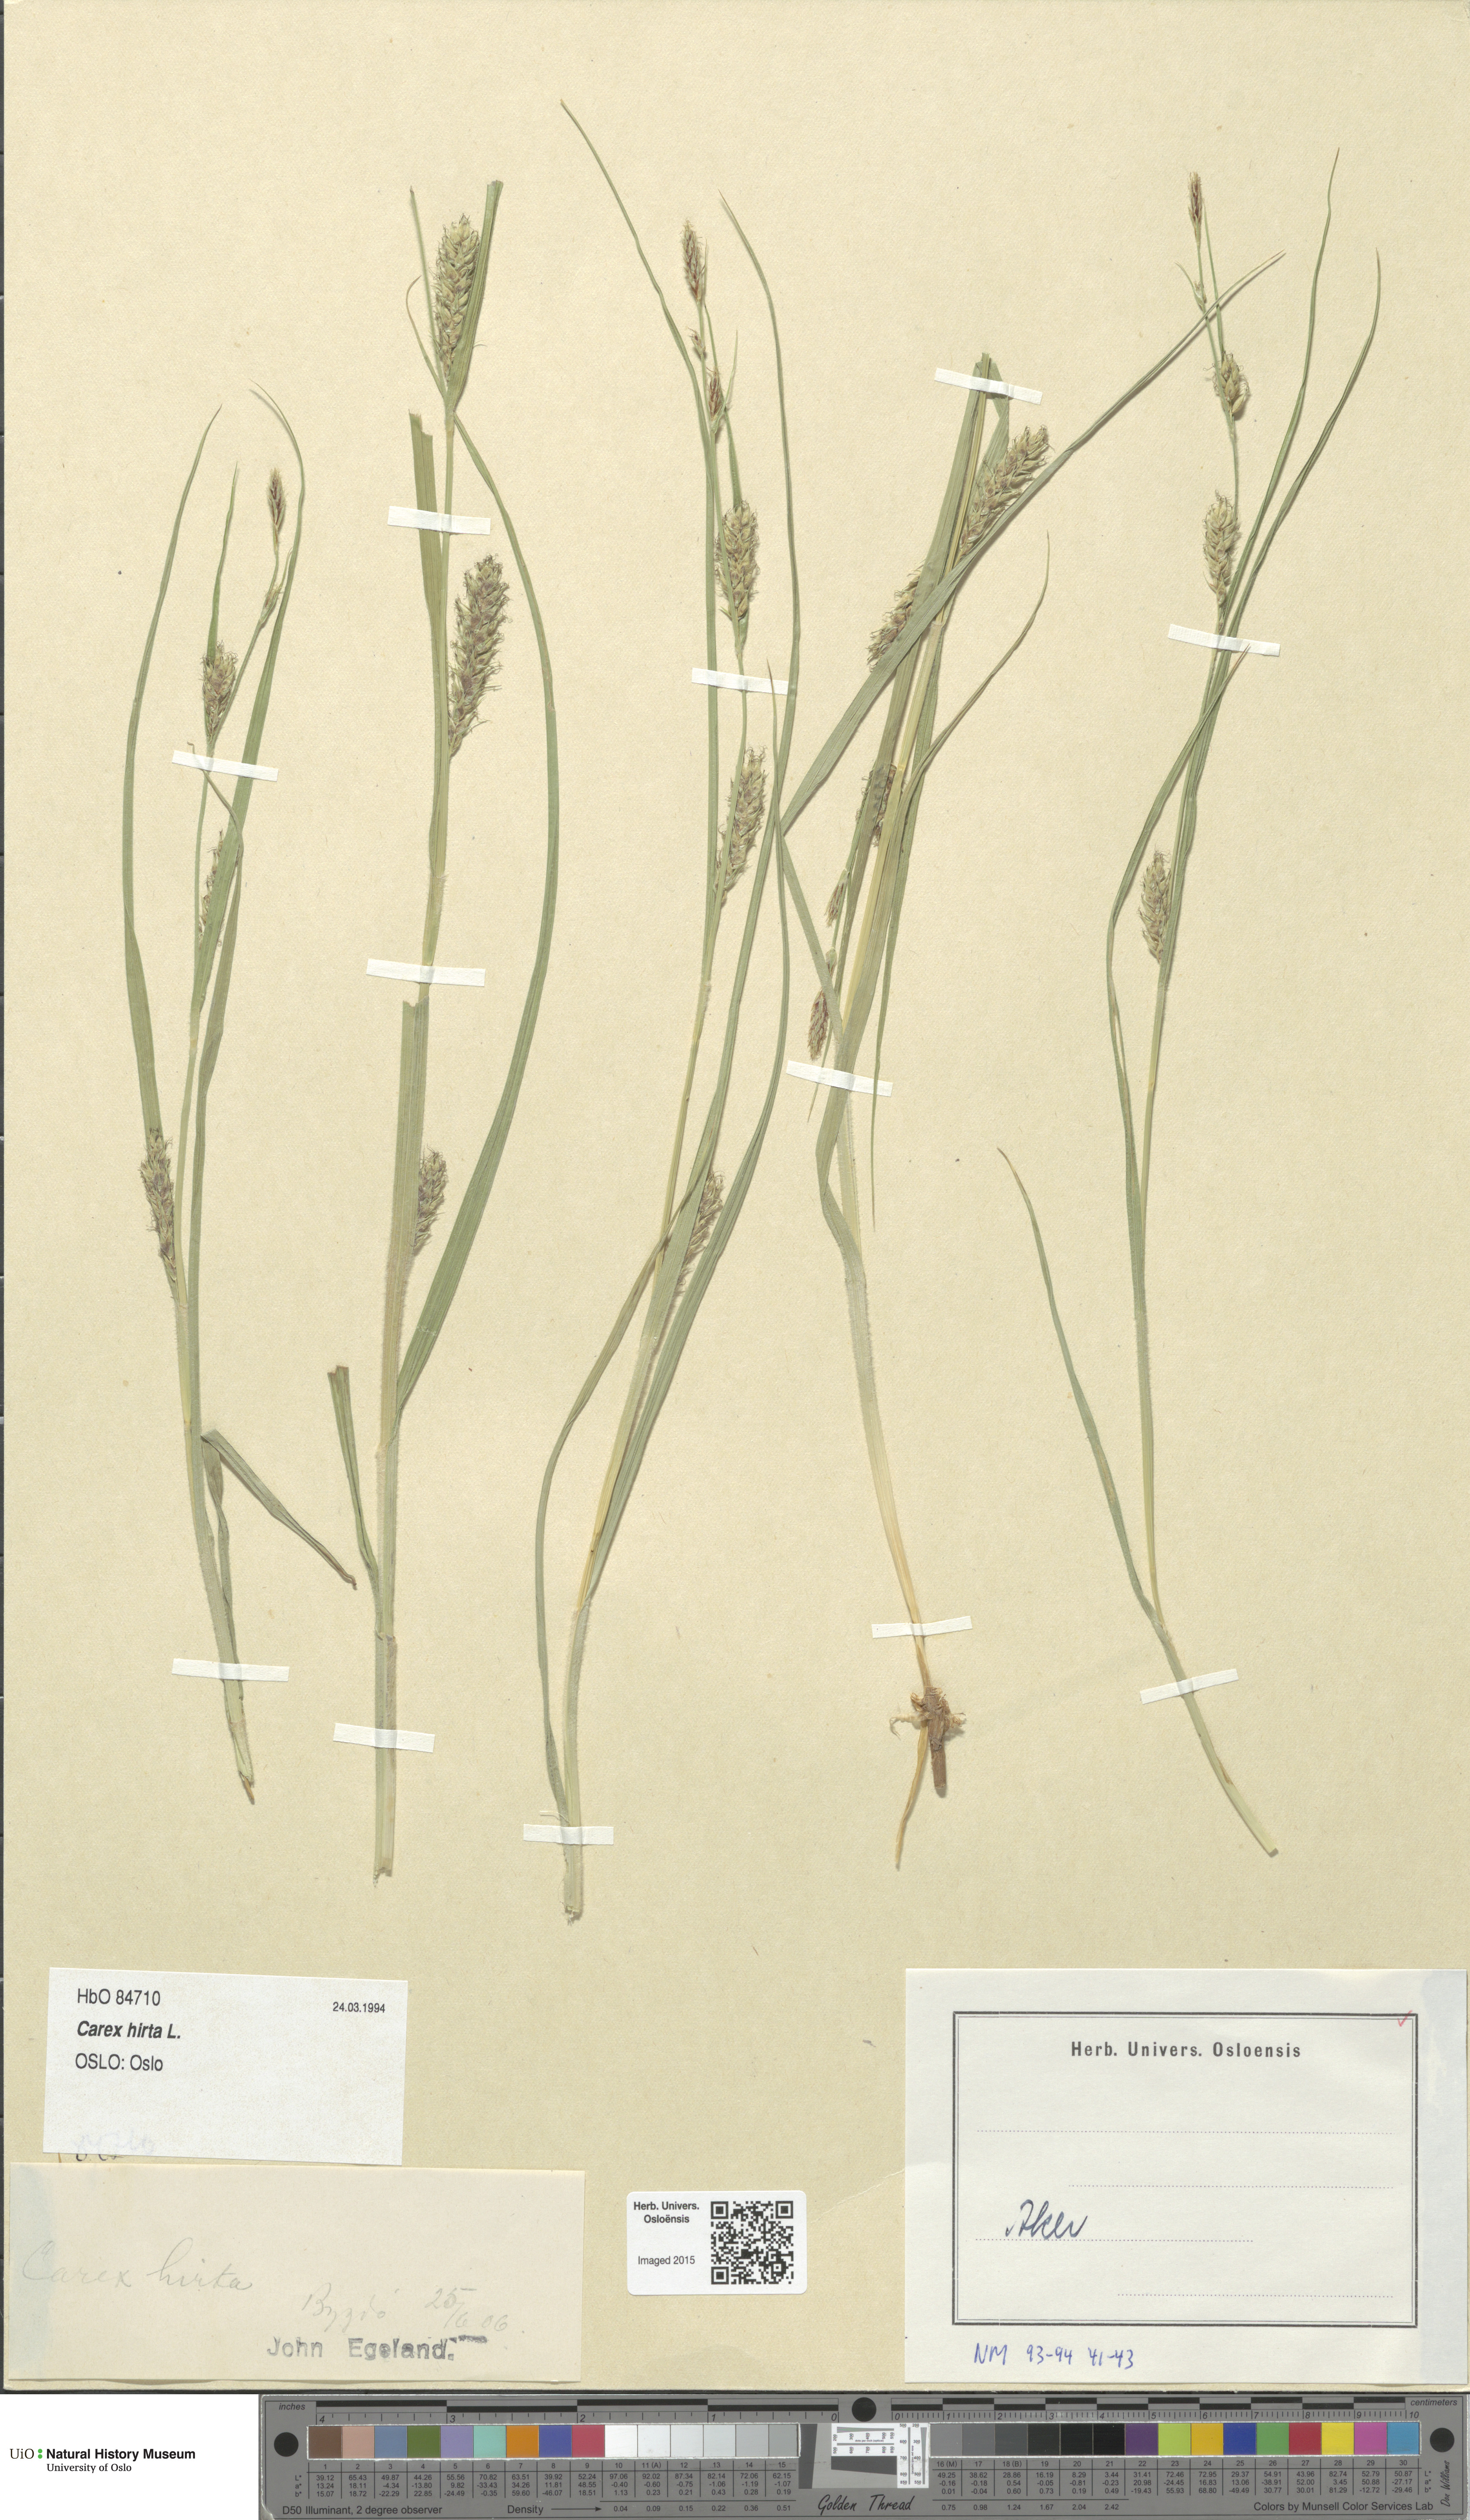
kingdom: Plantae
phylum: Tracheophyta
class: Liliopsida
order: Poales
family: Cyperaceae
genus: Carex
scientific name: Carex hirta
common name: Hairy sedge
